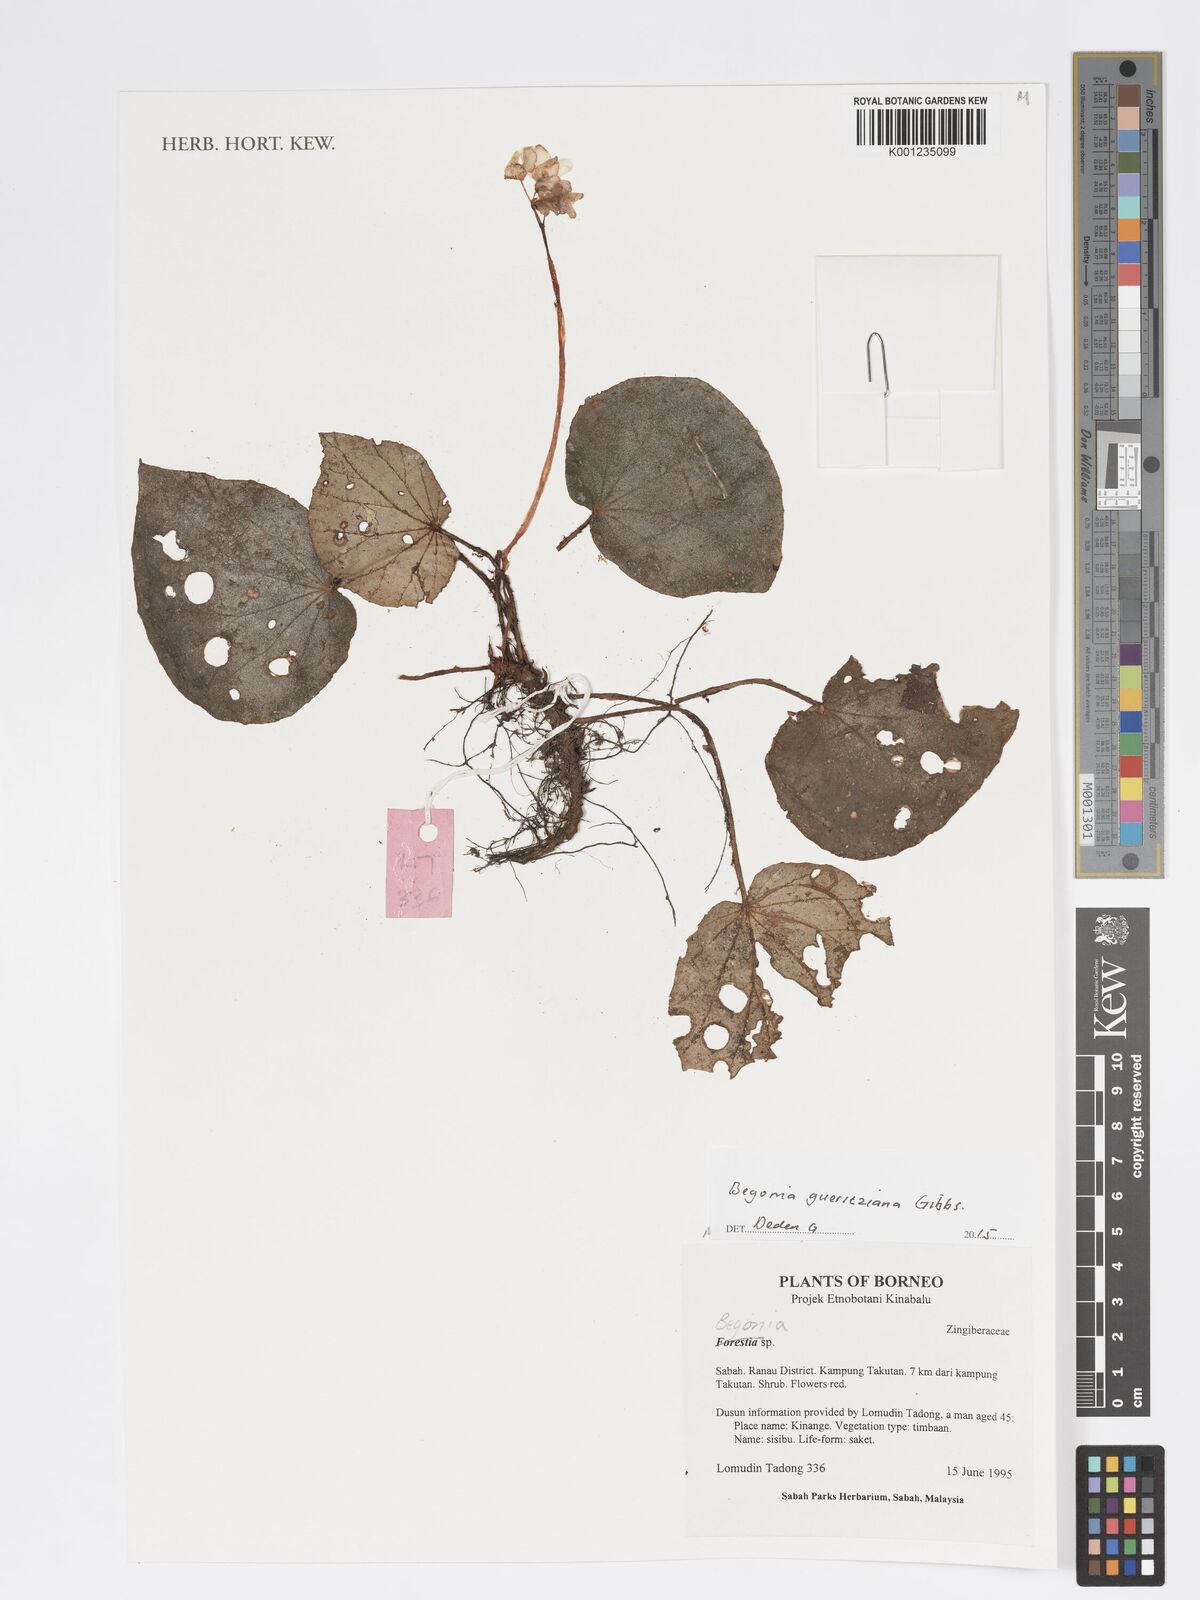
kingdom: Plantae
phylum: Tracheophyta
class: Magnoliopsida
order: Cucurbitales
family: Begoniaceae
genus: Begonia
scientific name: Begonia gueritziana
